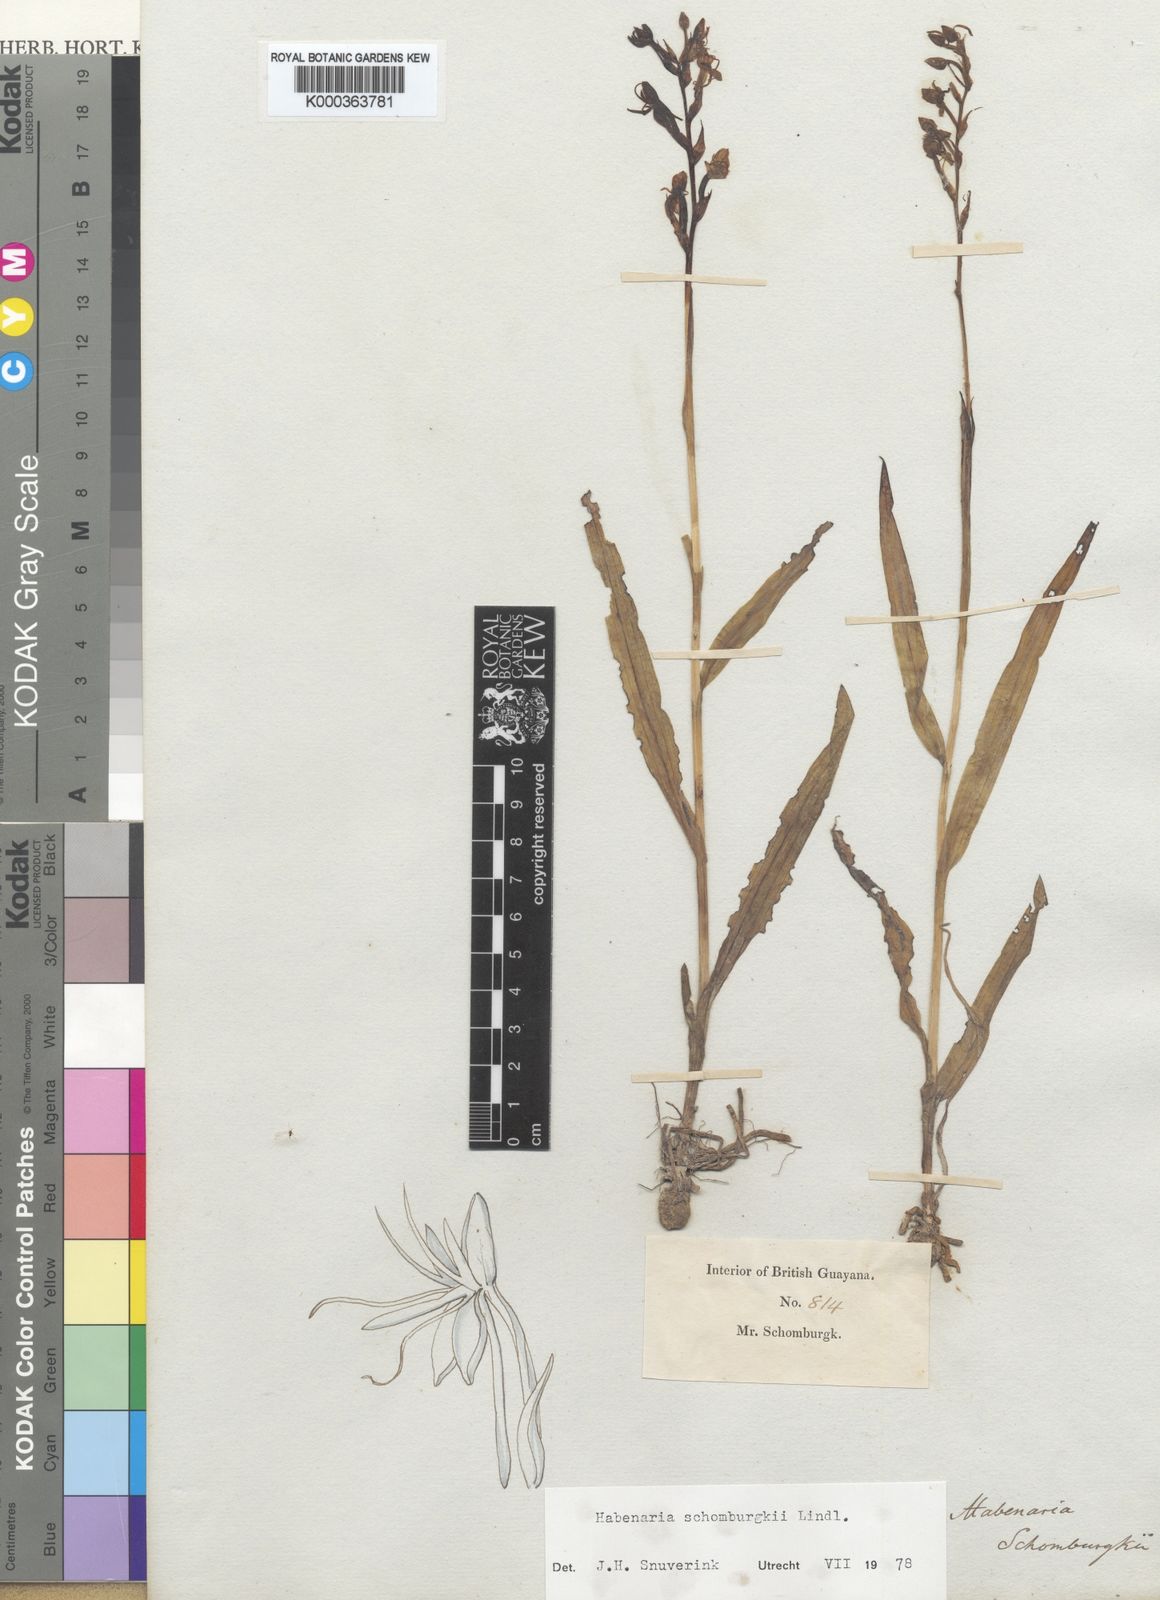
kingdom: Plantae
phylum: Tracheophyta
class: Liliopsida
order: Asparagales
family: Orchidaceae
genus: Habenaria
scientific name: Habenaria
